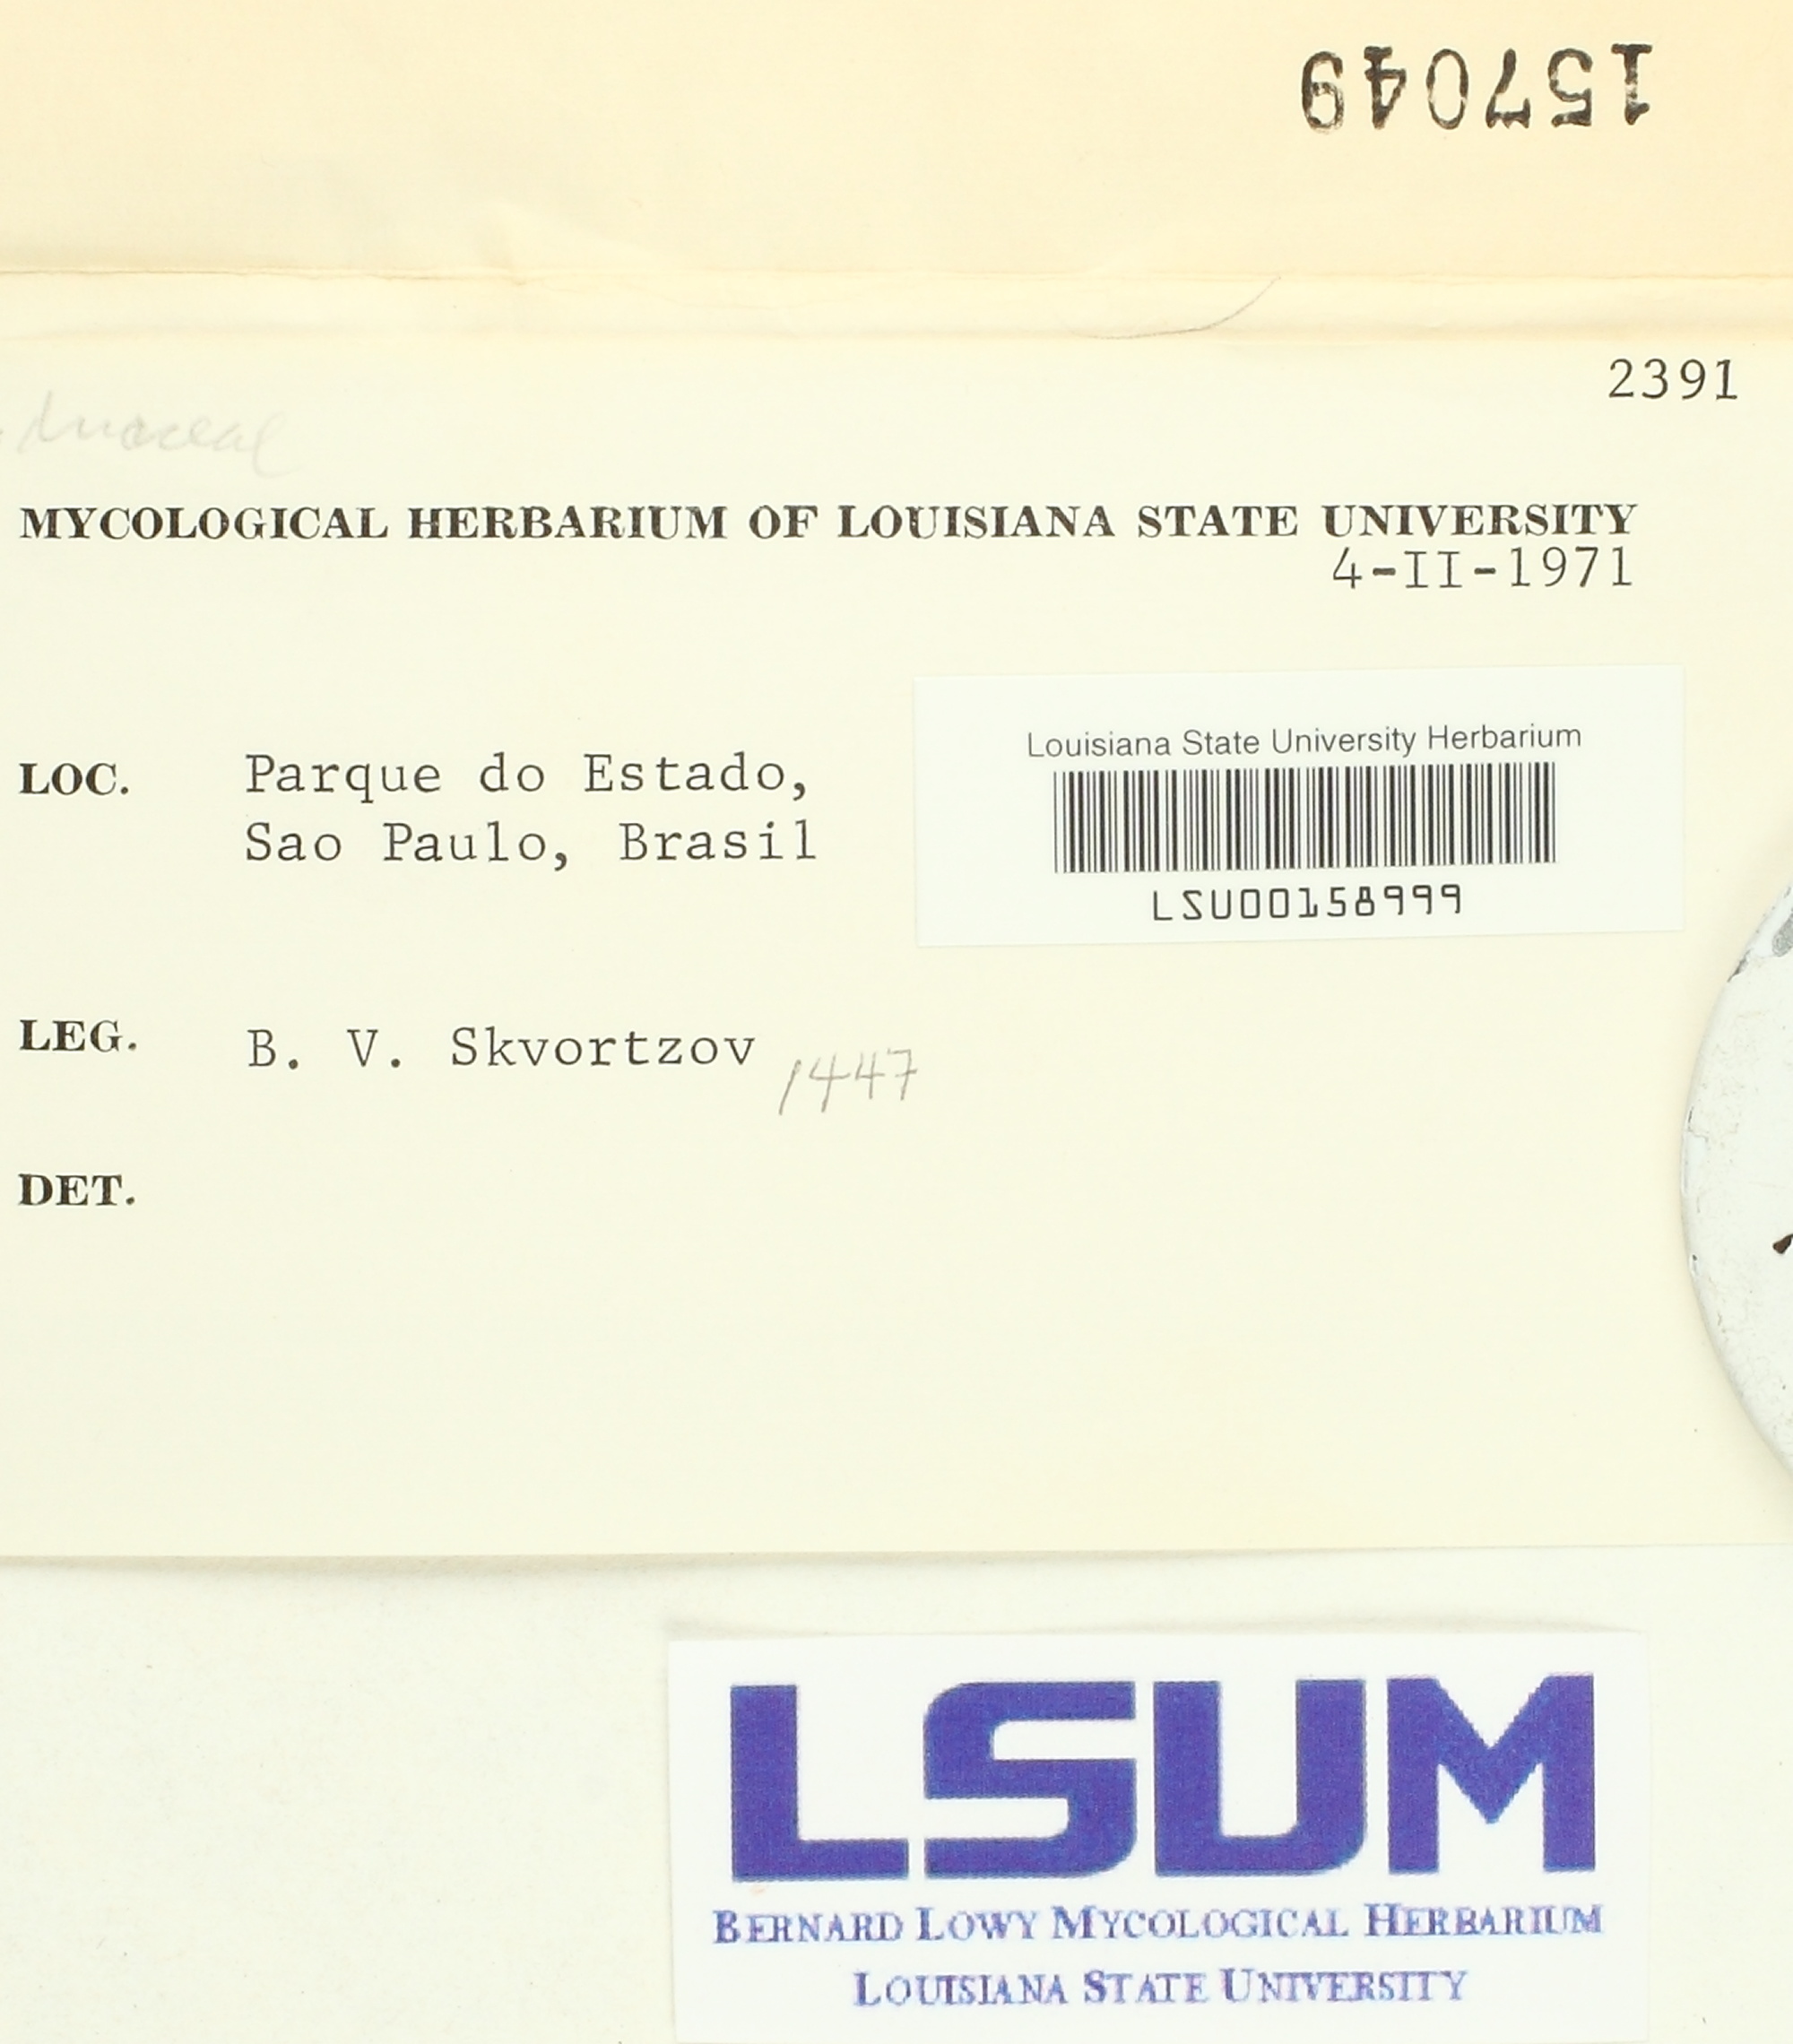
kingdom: Fungi
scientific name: Fungi
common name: Fungi
